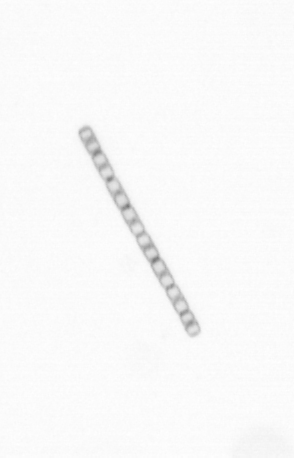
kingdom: Chromista
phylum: Ochrophyta
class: Bacillariophyceae
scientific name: Bacillariophyceae
